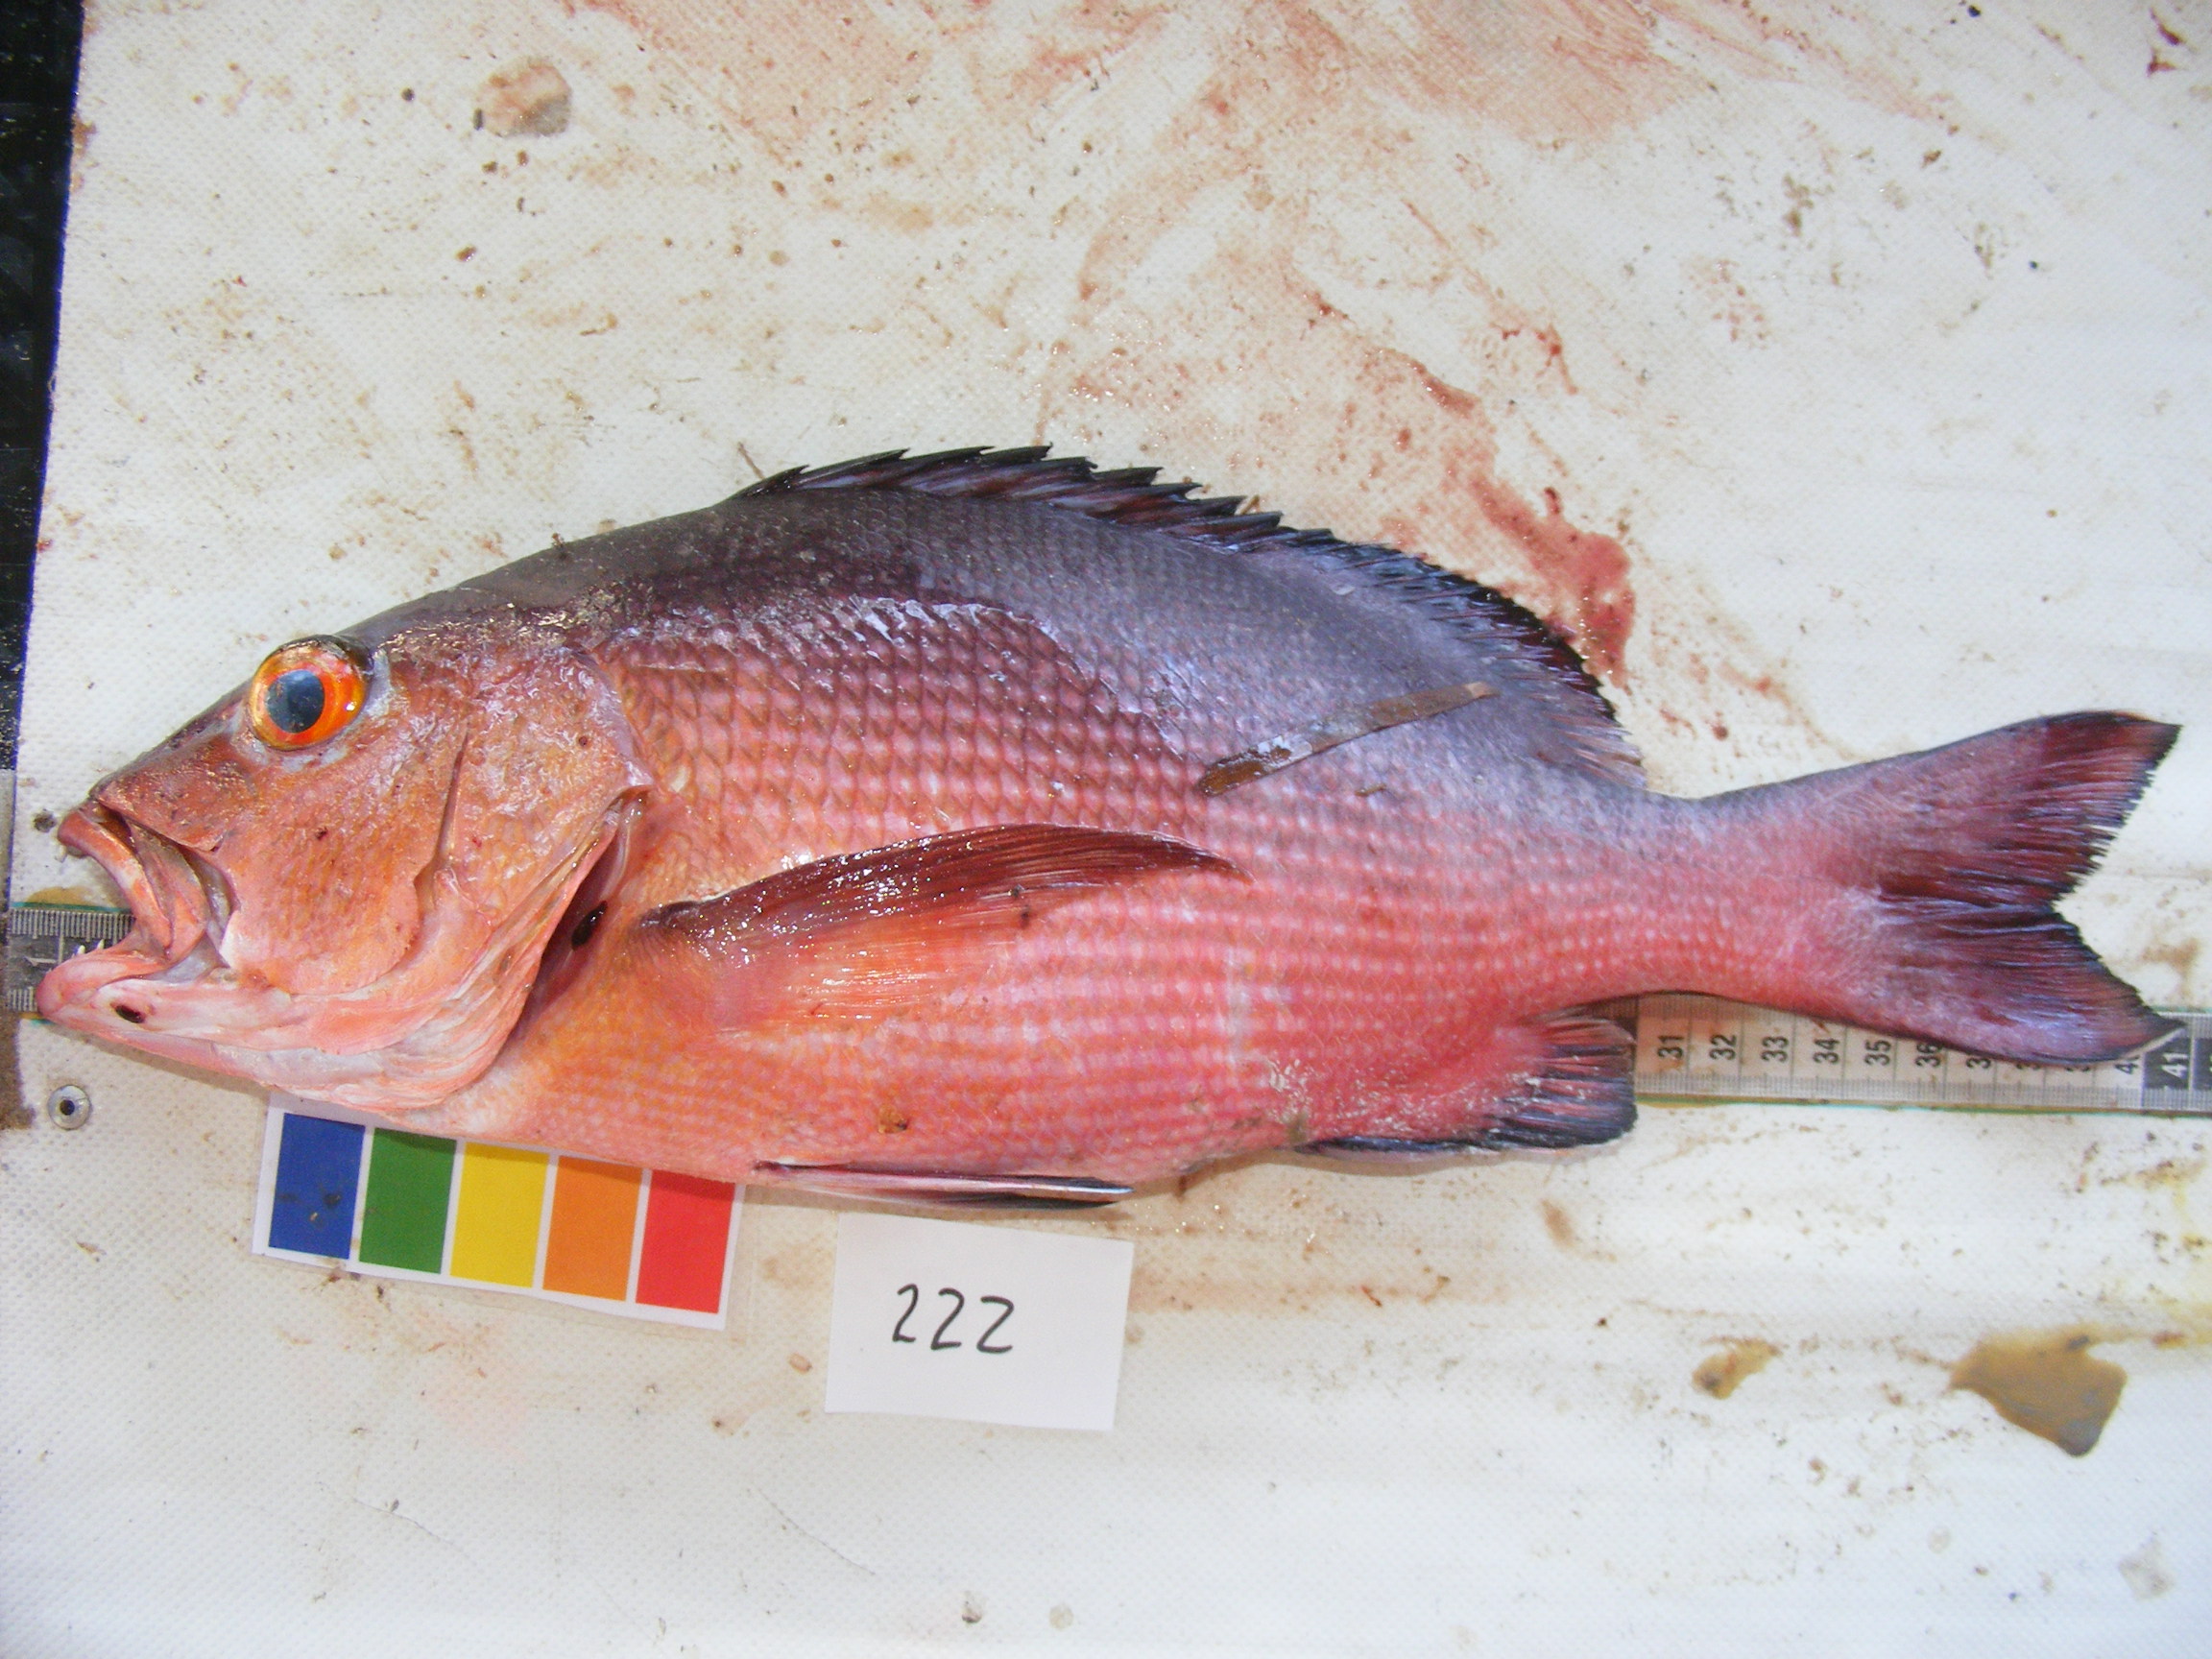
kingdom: Animalia
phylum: Chordata
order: Perciformes
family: Lutjanidae
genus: Lutjanus
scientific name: Lutjanus bohar
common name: Red bass
